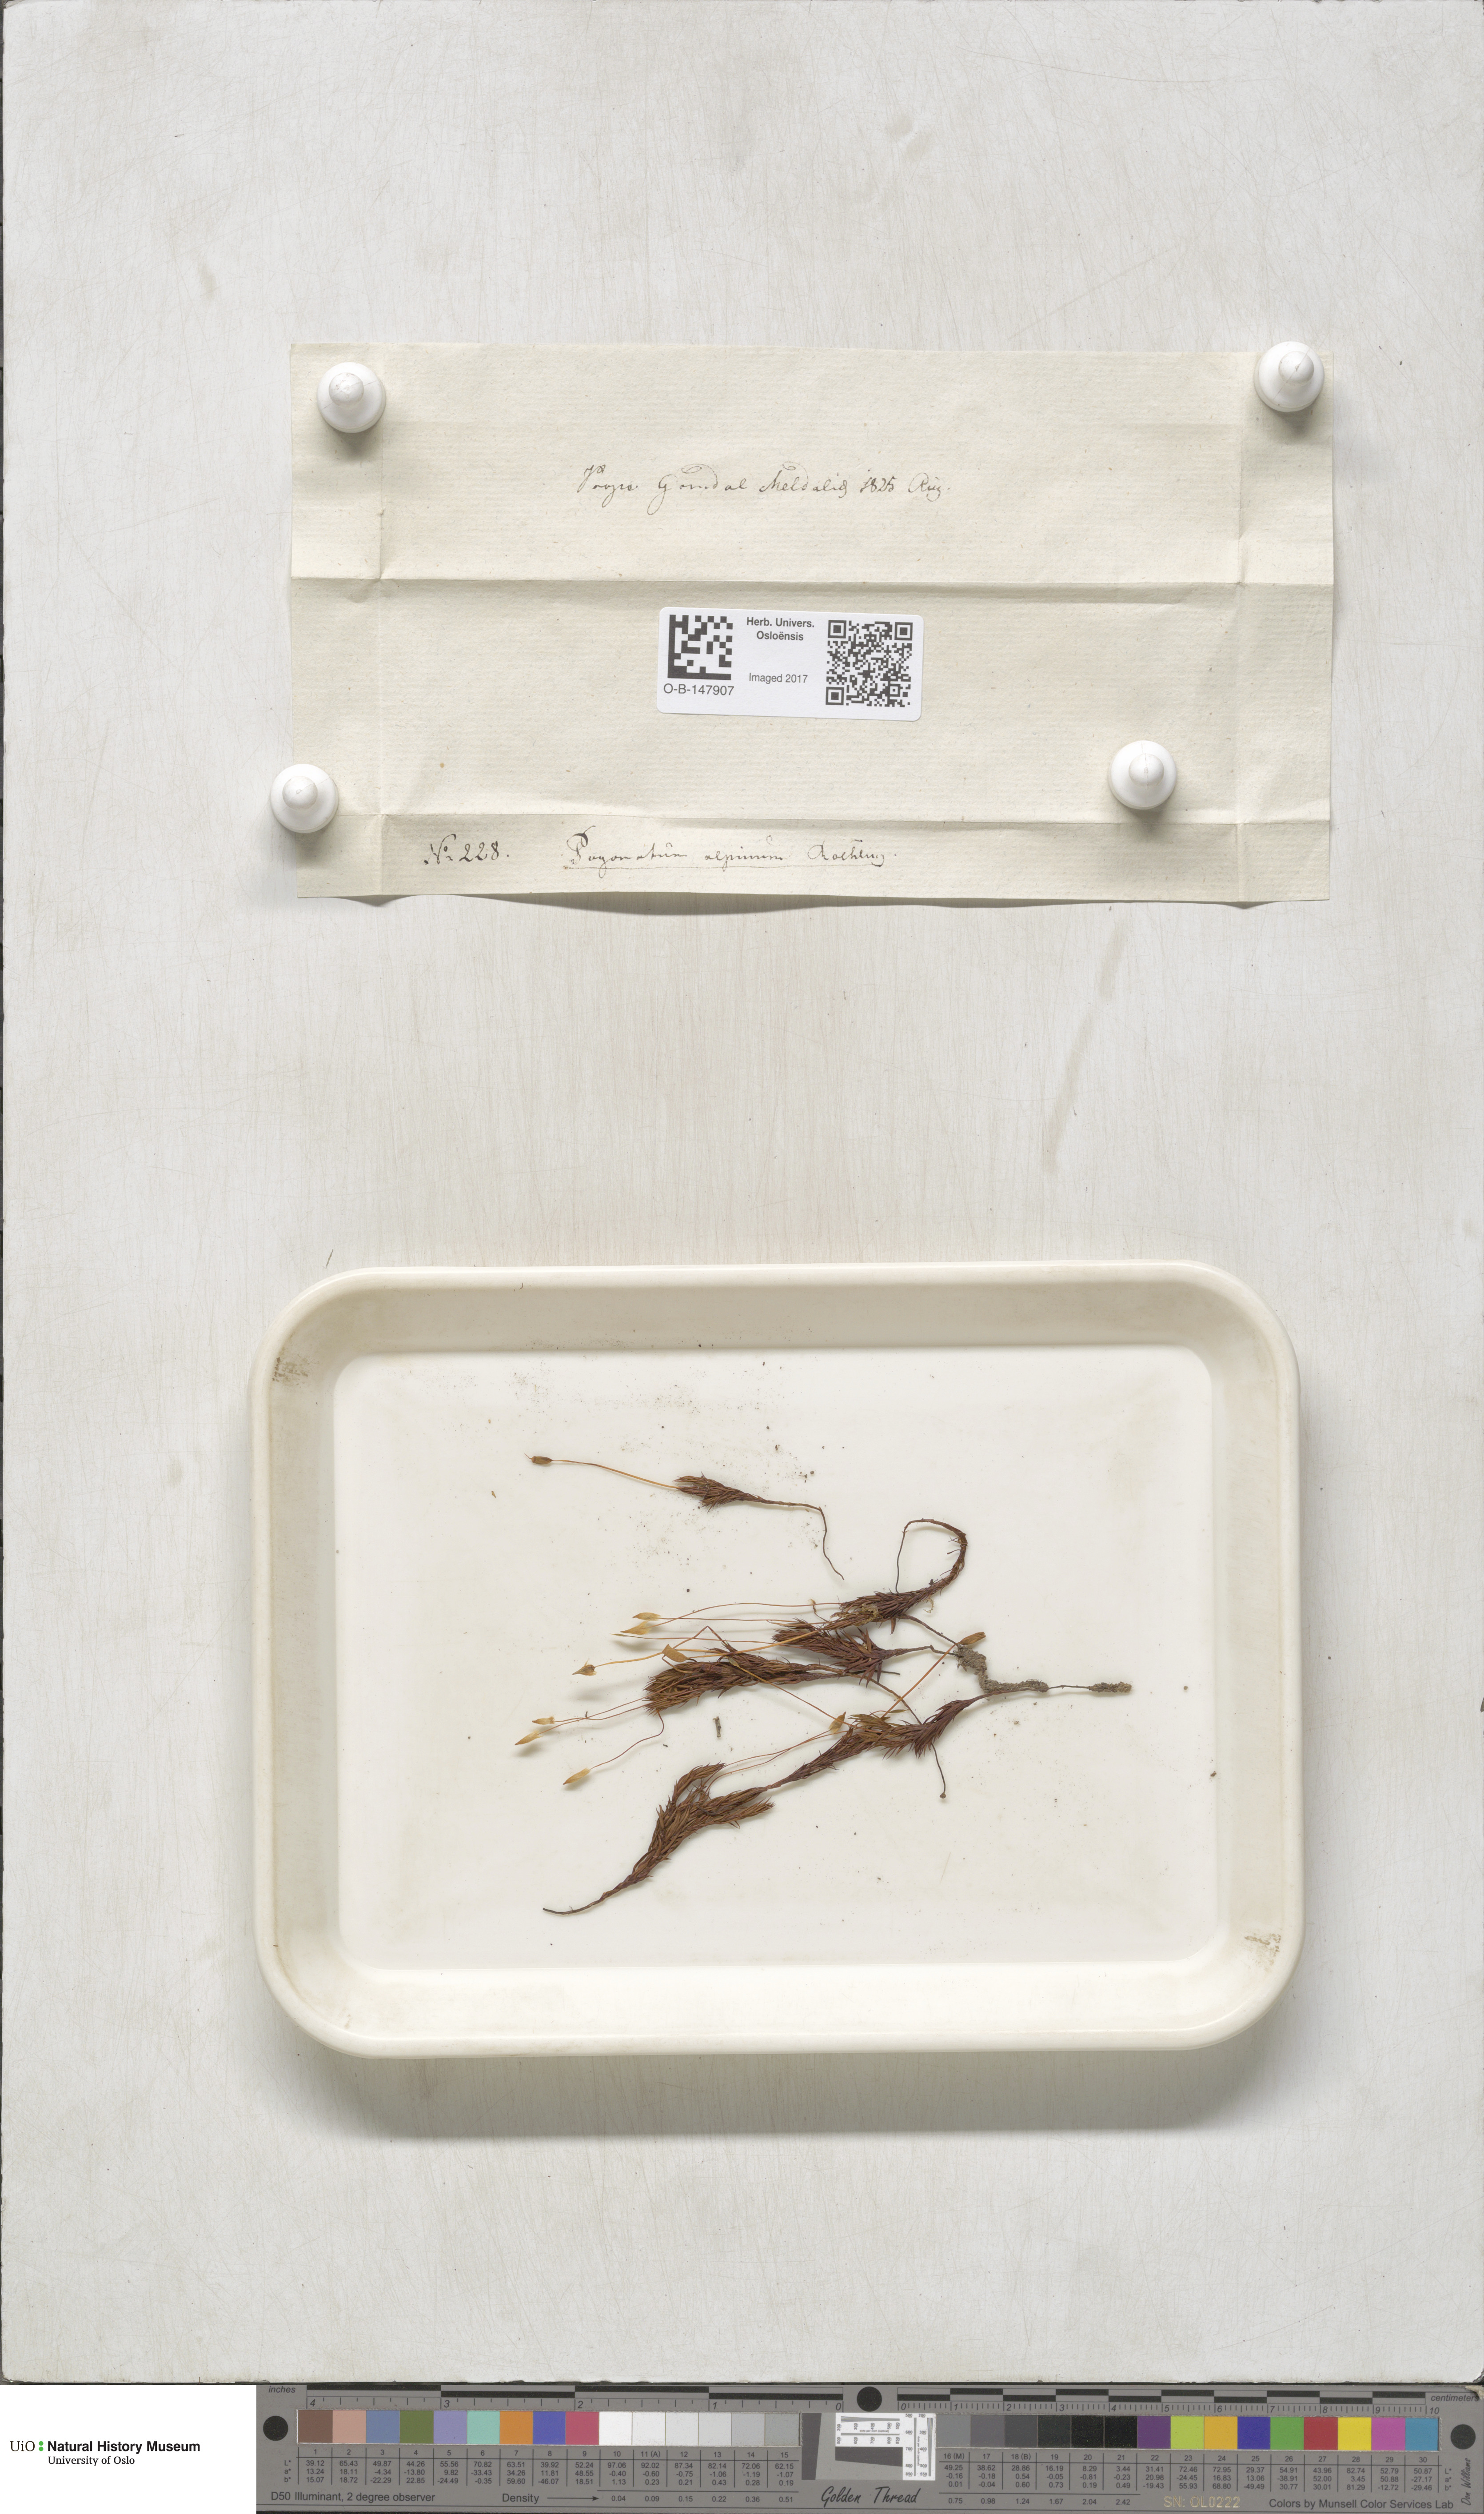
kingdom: Plantae
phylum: Bryophyta
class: Polytrichopsida
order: Polytrichales
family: Polytrichaceae
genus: Polytrichastrum
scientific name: Polytrichastrum alpinum
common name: Alpine haircap
